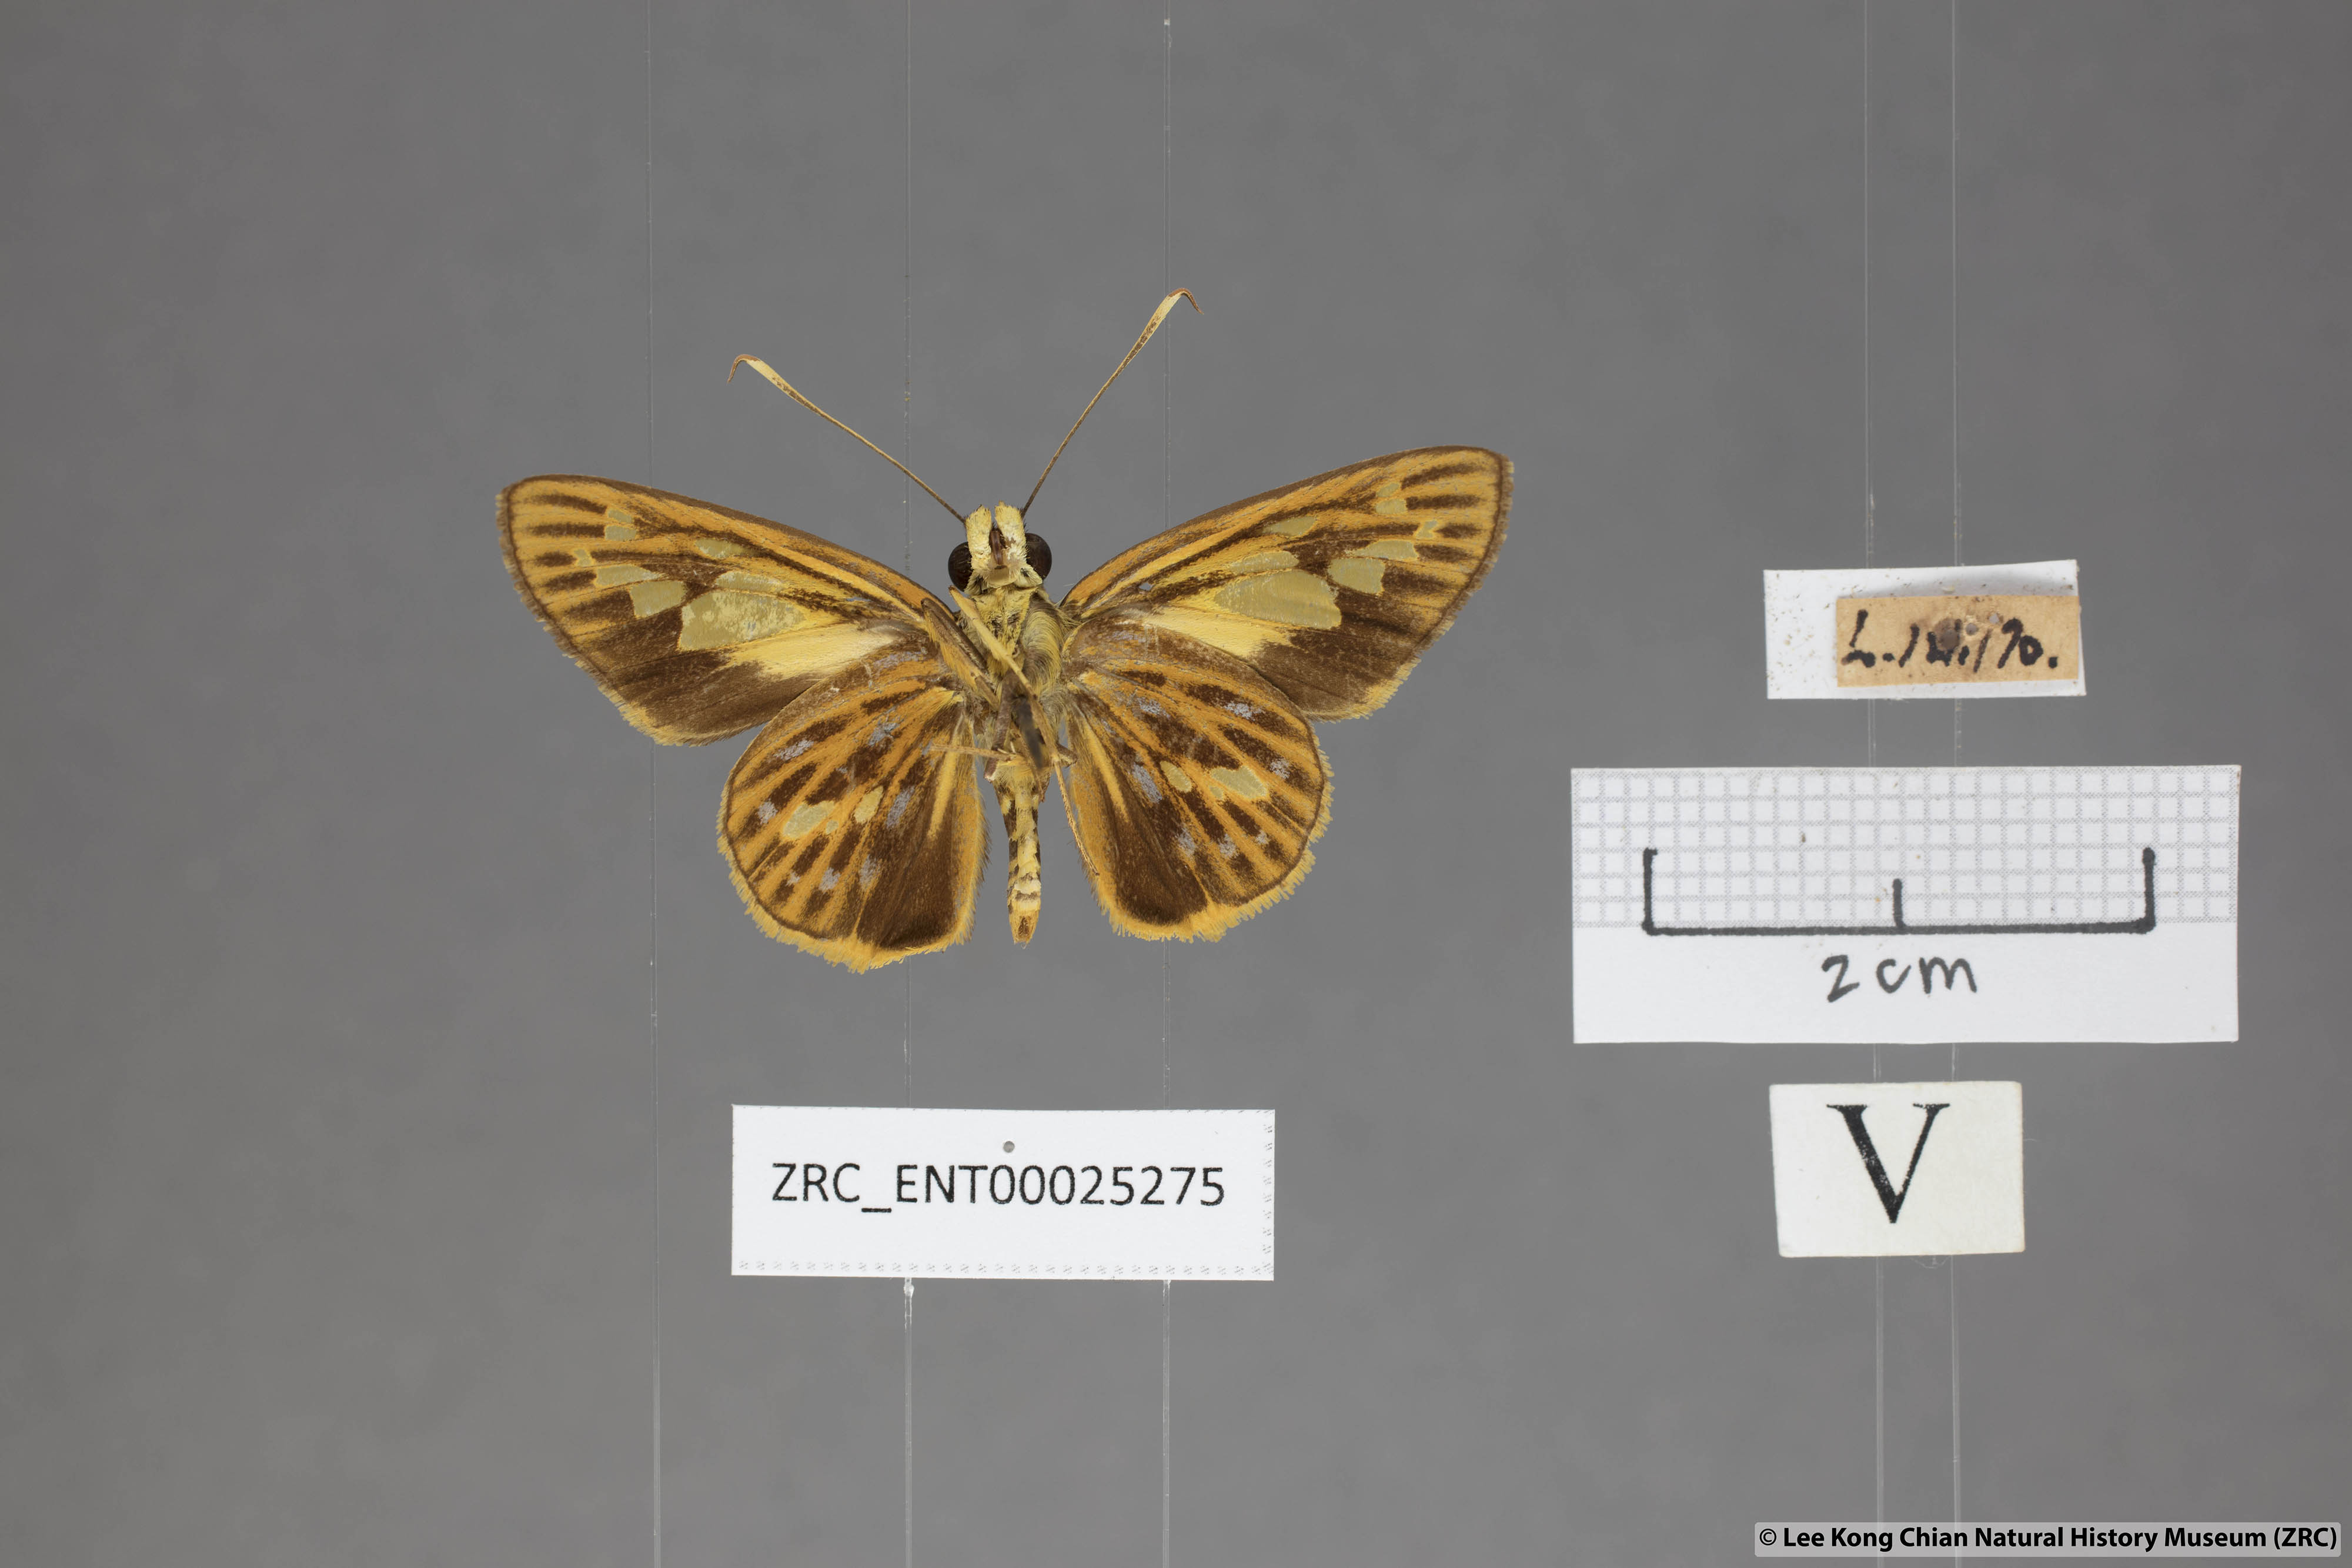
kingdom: Animalia
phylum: Arthropoda
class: Insecta
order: Lepidoptera
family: Hesperiidae
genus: Pyroneura
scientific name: Pyroneura niasana
